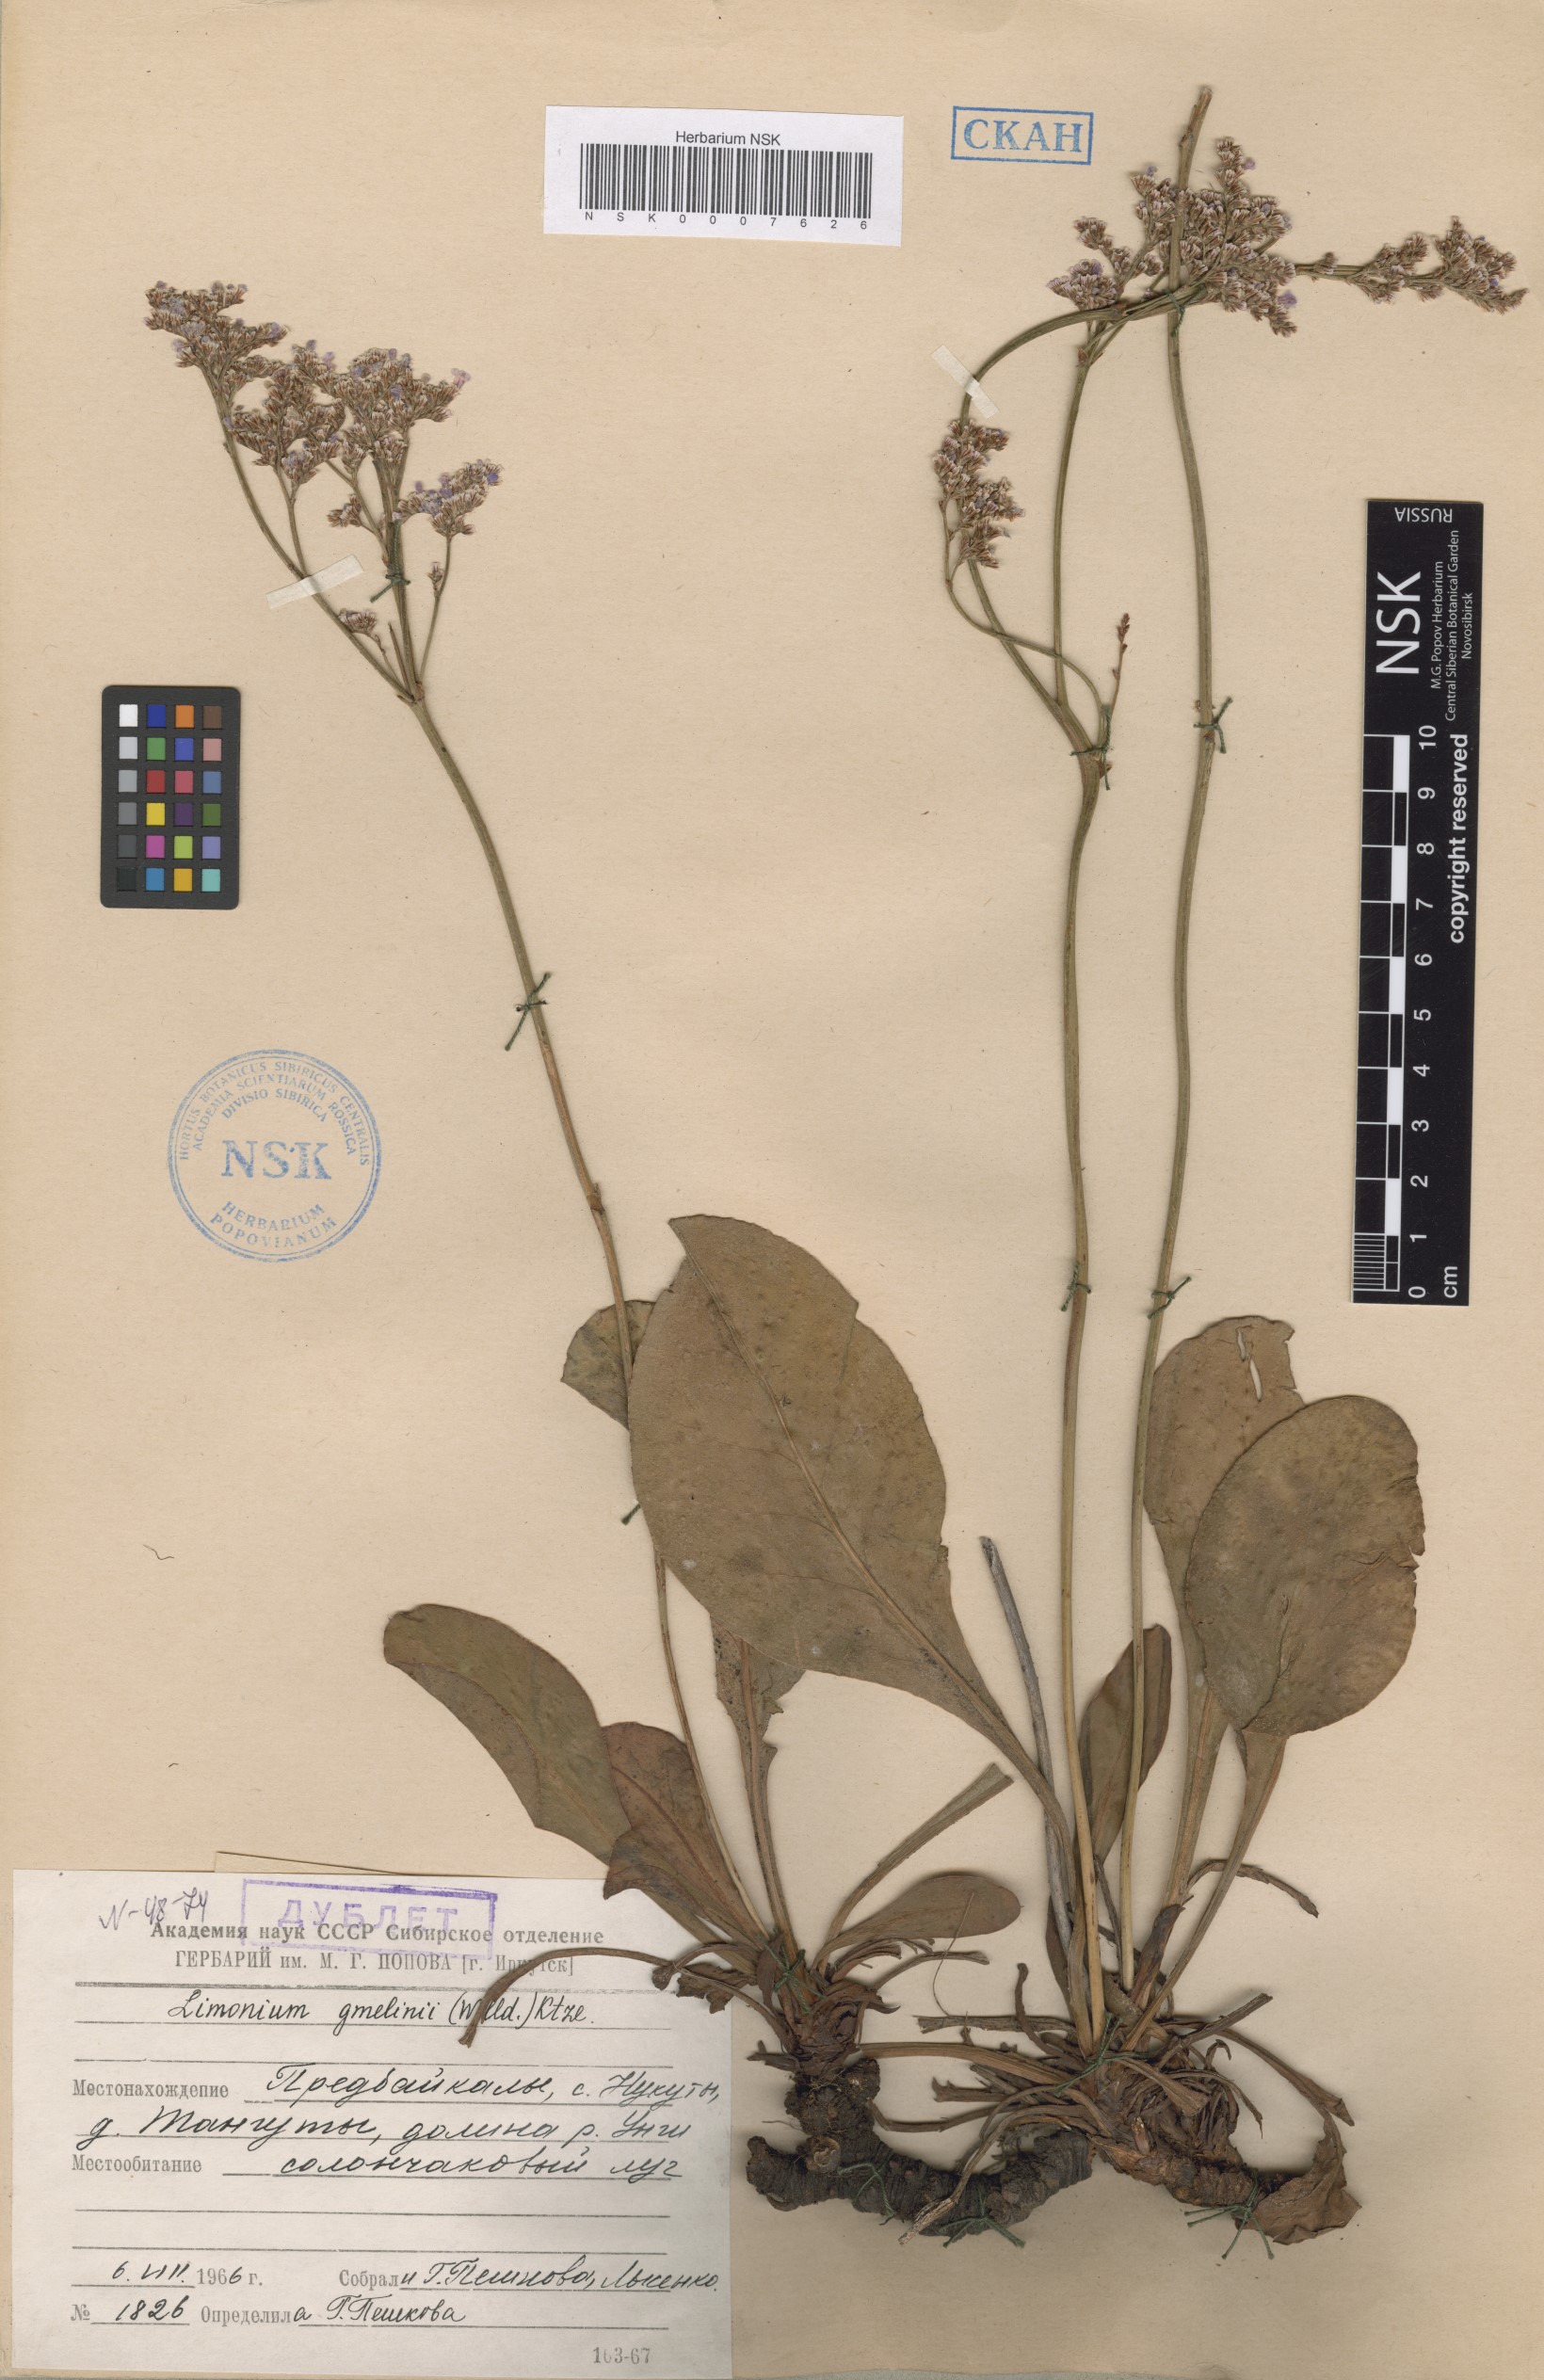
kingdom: Plantae
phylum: Tracheophyta
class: Magnoliopsida
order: Caryophyllales
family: Plumbaginaceae
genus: Limonium
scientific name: Limonium gmelini
